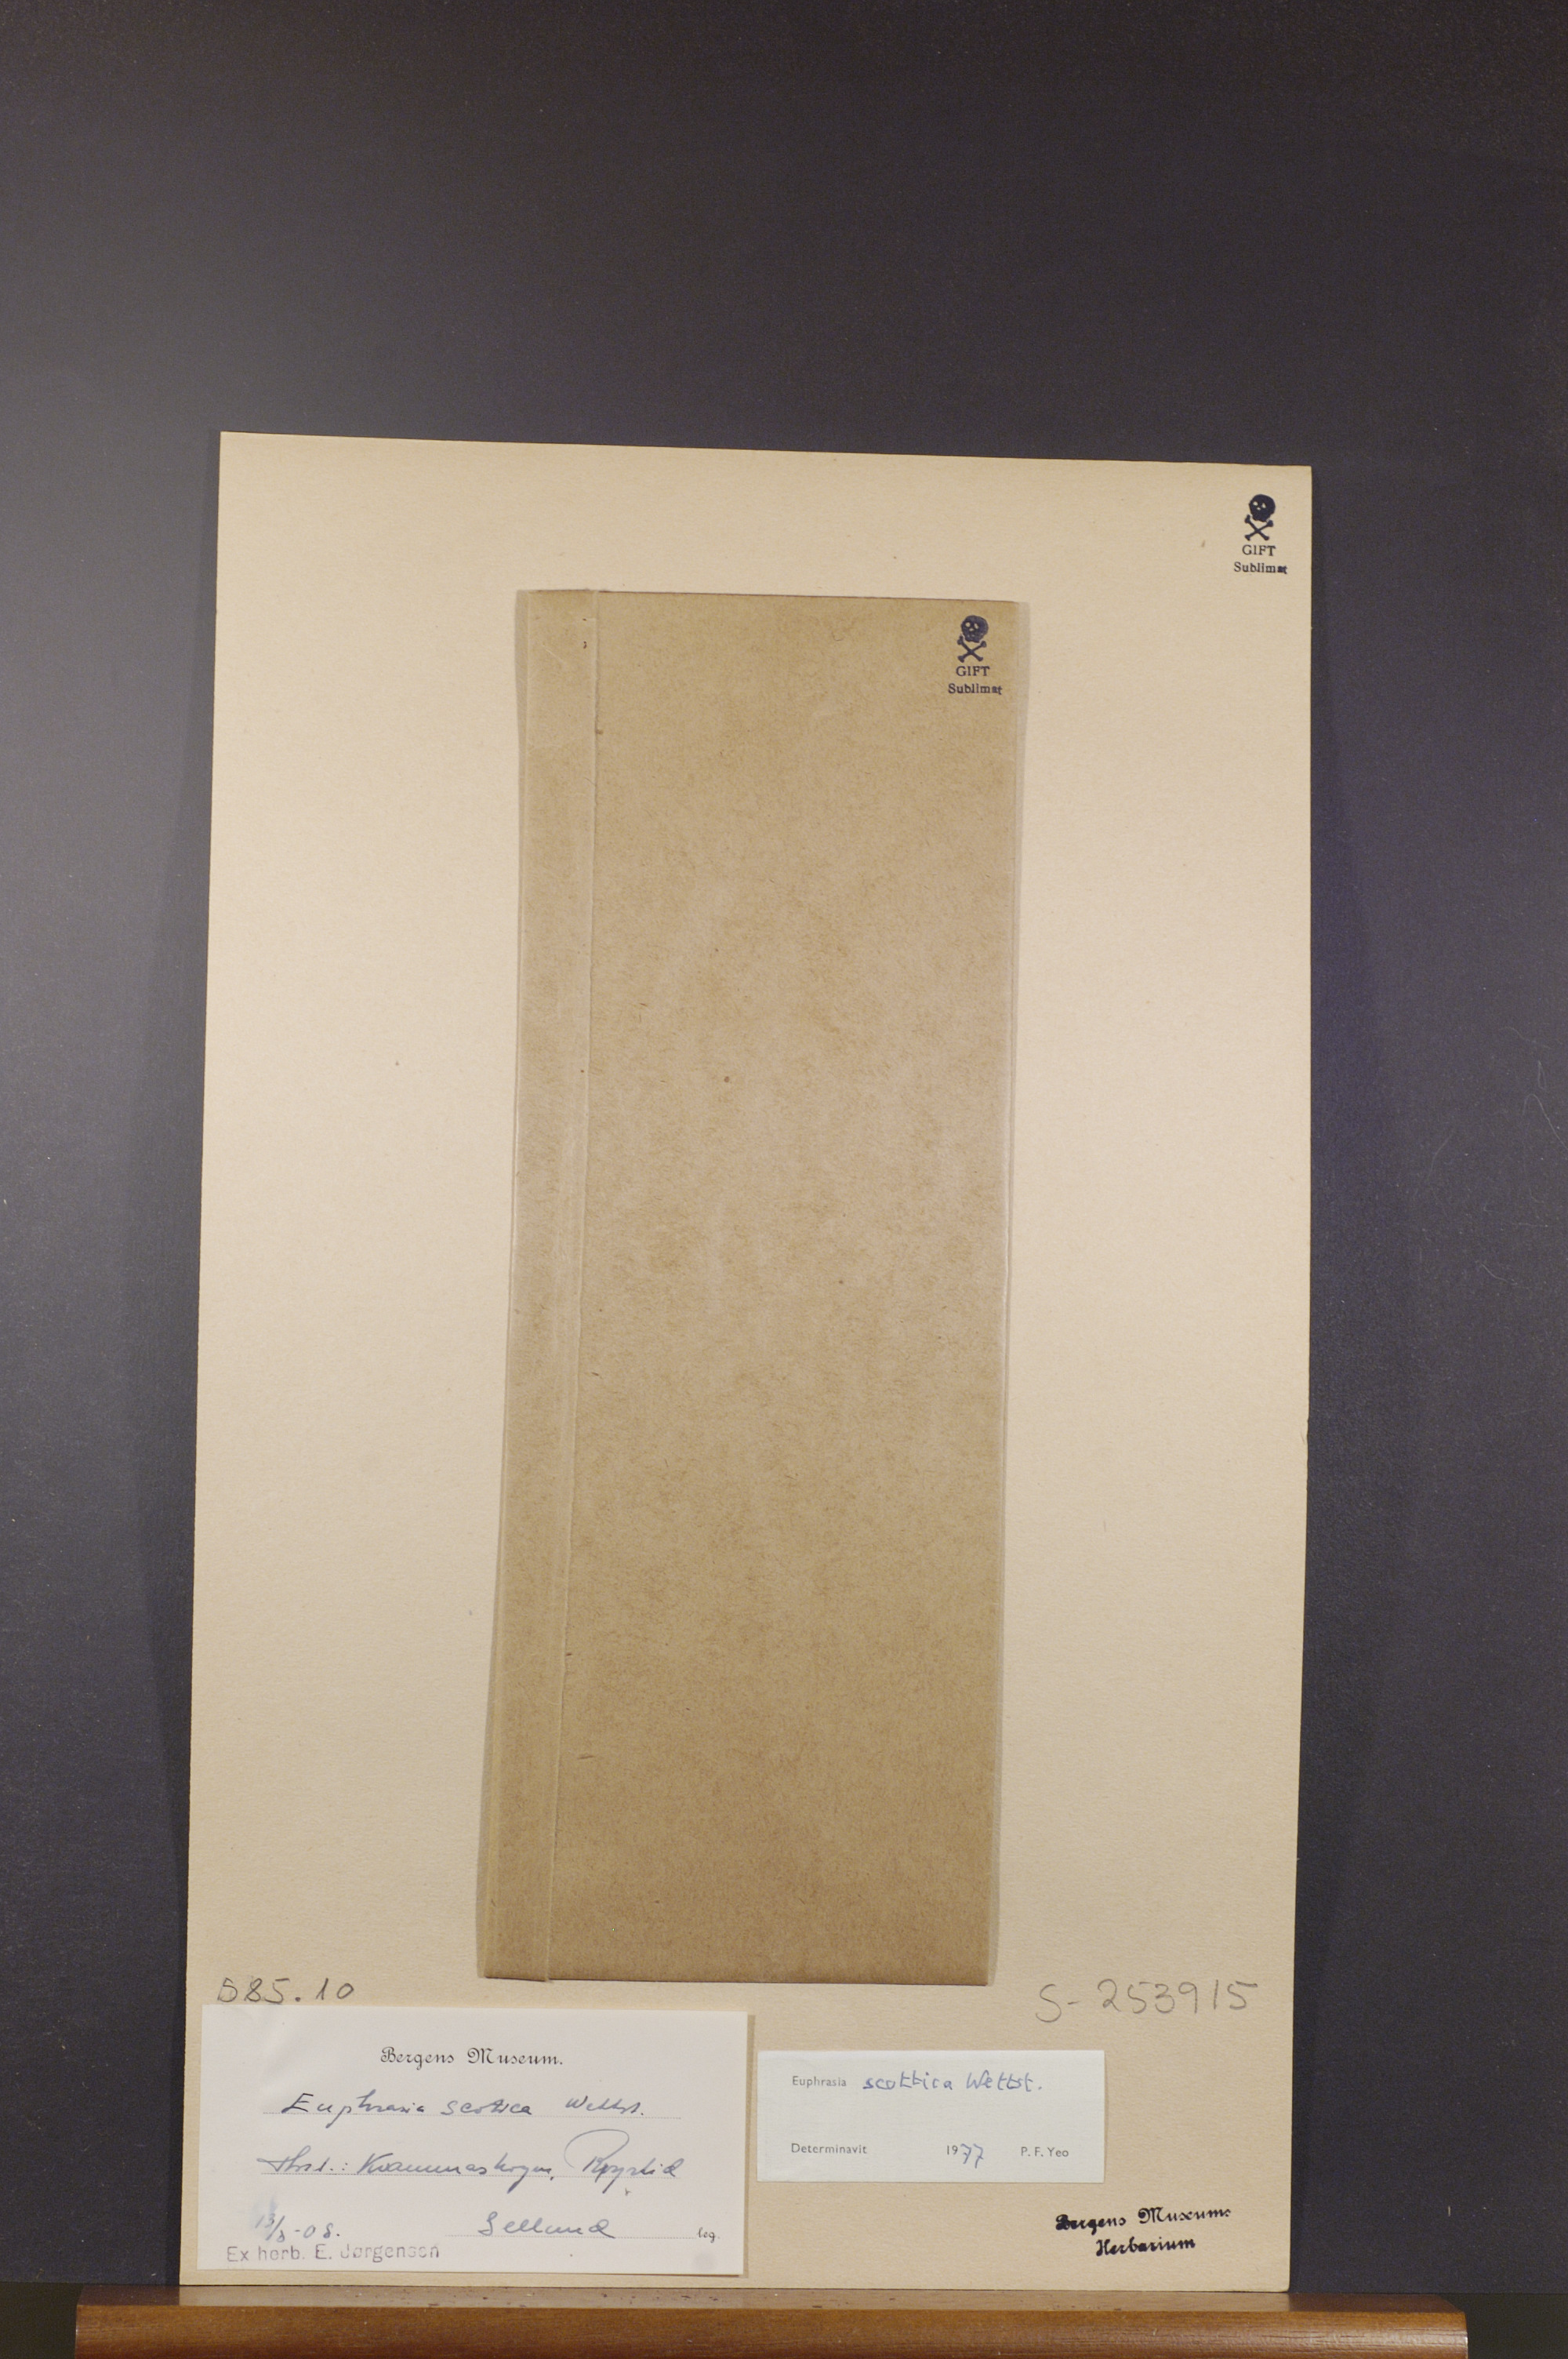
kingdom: Plantae
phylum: Tracheophyta
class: Magnoliopsida
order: Lamiales
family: Orobanchaceae
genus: Euphrasia
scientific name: Euphrasia scottica
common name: Slender scottish eyebright
